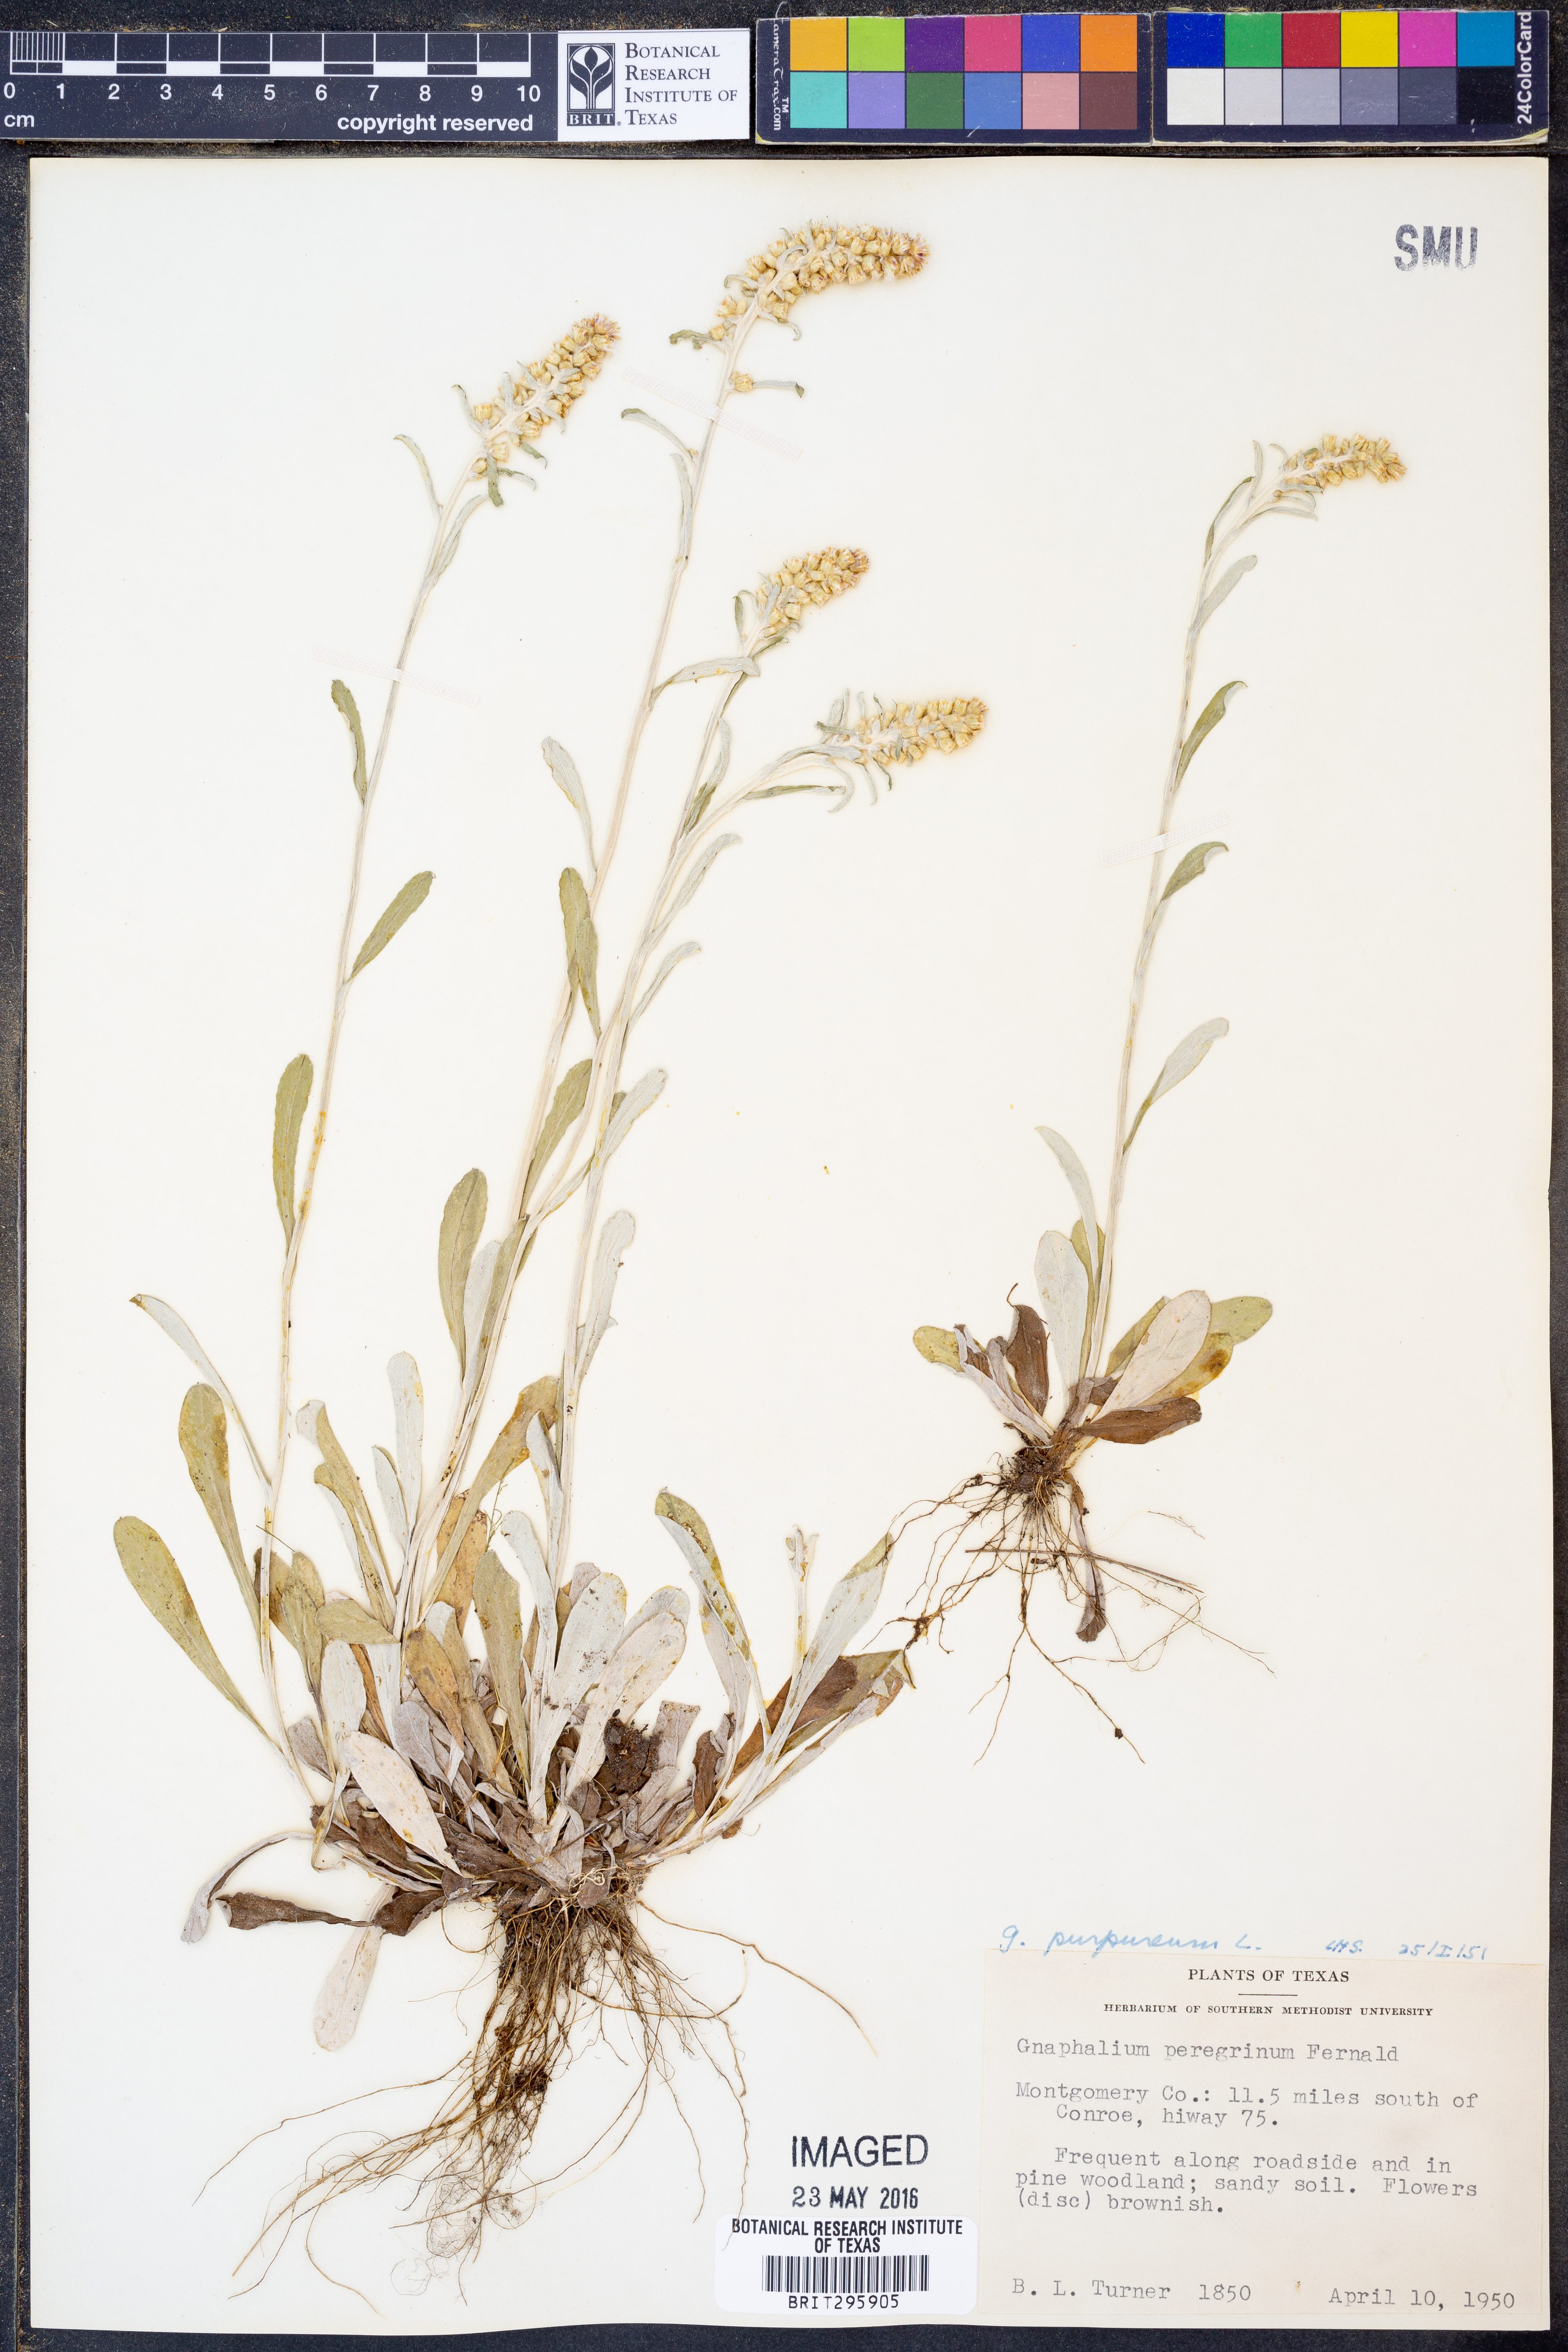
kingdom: Plantae
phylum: Tracheophyta
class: Magnoliopsida
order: Asterales
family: Asteraceae
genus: Gamochaeta
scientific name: Gamochaeta purpurea
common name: Purple cudweed
